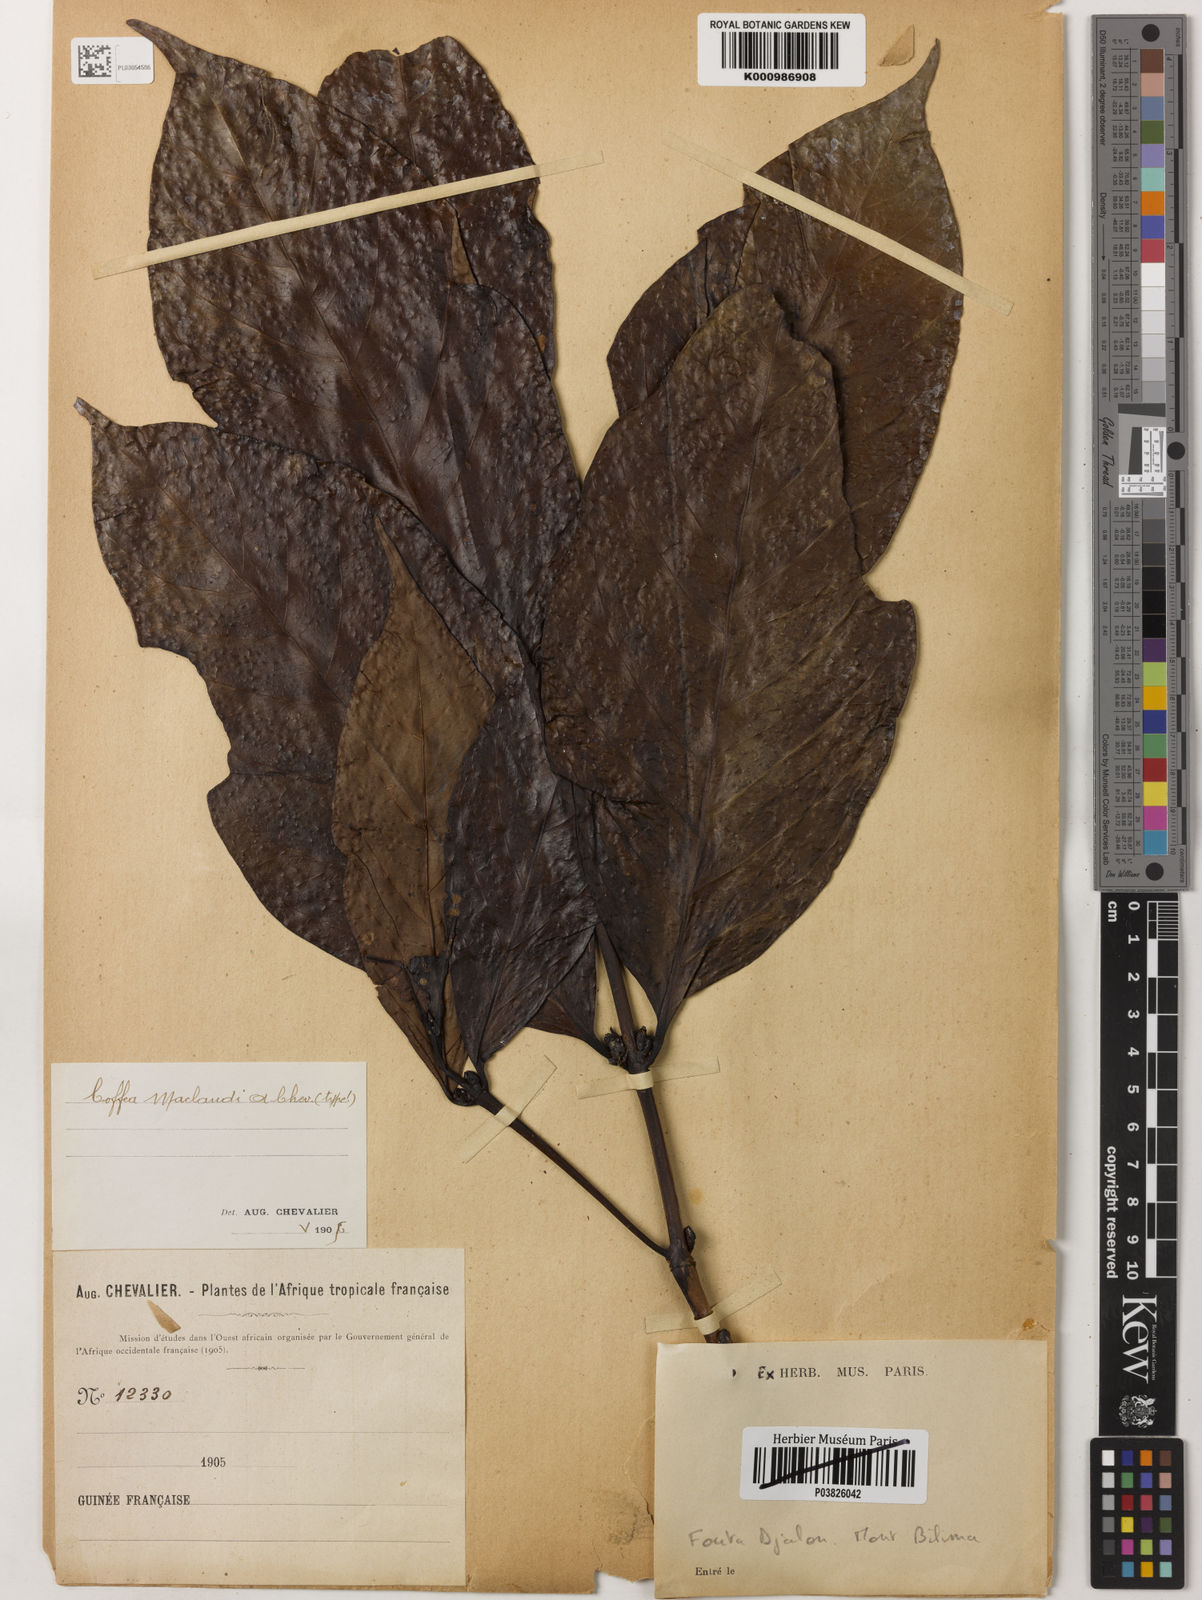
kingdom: Plantae
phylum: Tracheophyta
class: Magnoliopsida
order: Gentianales
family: Rubiaceae
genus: Coffea
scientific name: Coffea canephora
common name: Robusta coffee
